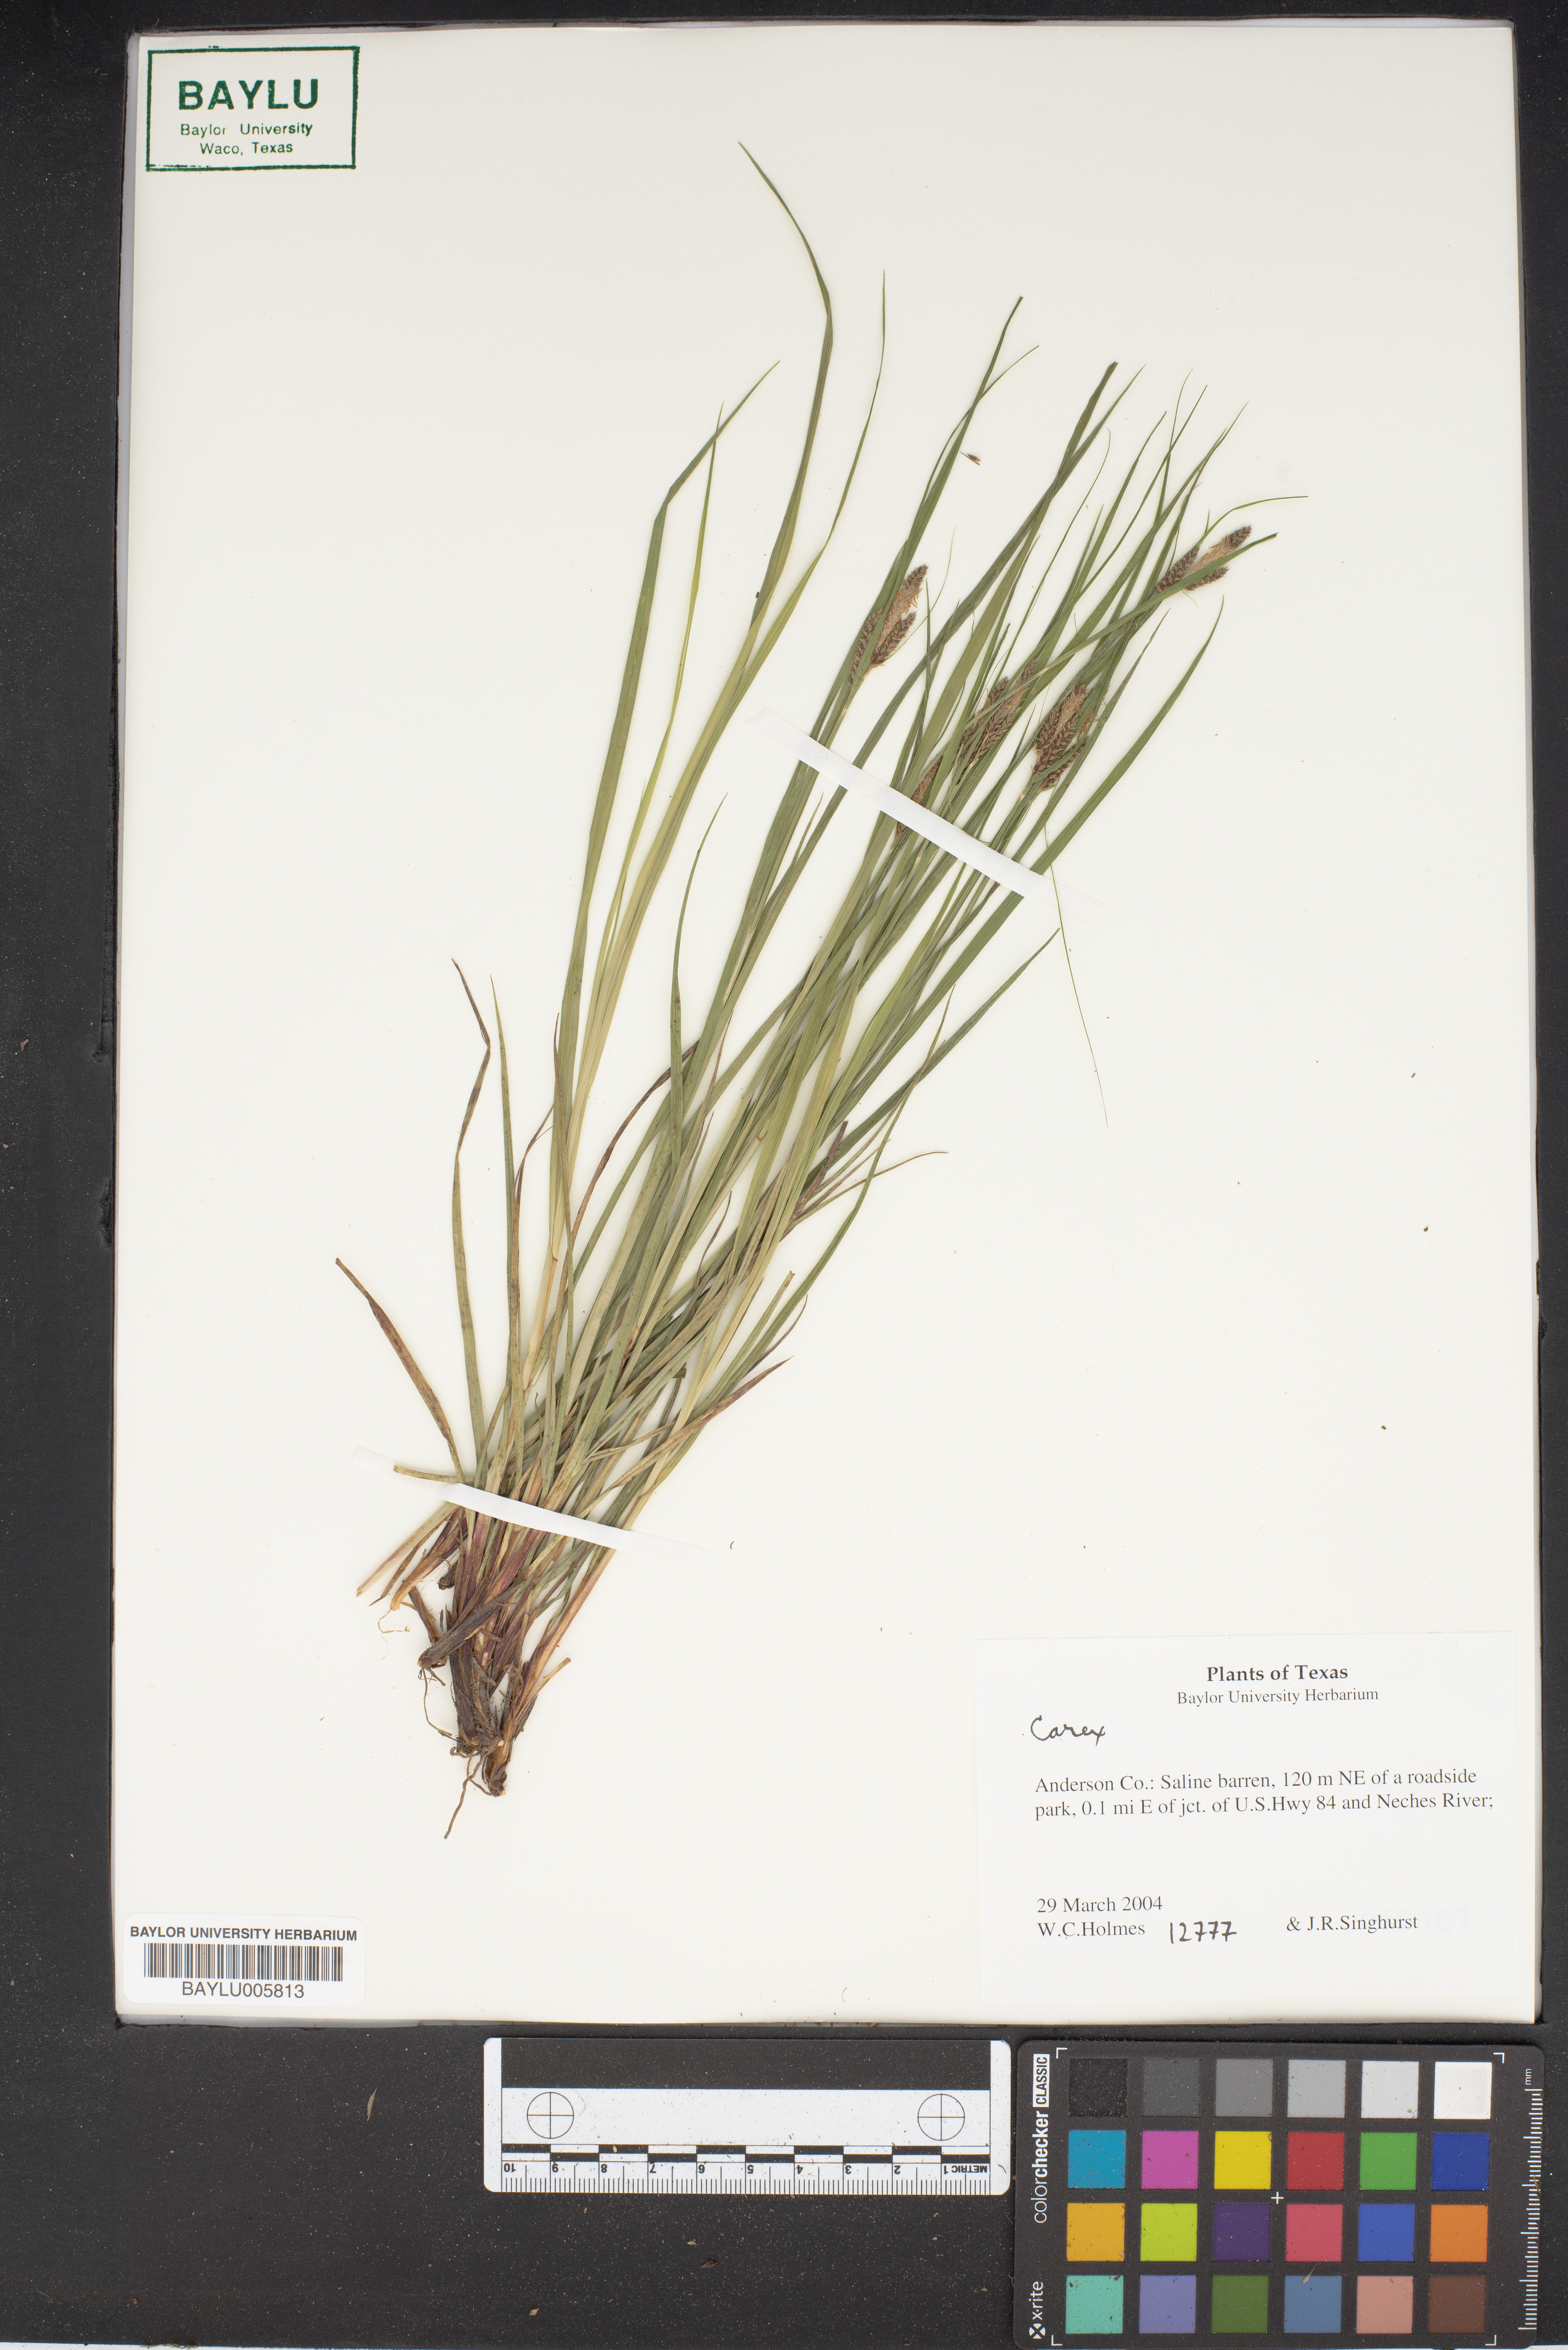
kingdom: Plantae
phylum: Tracheophyta
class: Liliopsida
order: Poales
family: Cyperaceae
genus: Carex
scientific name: Carex
